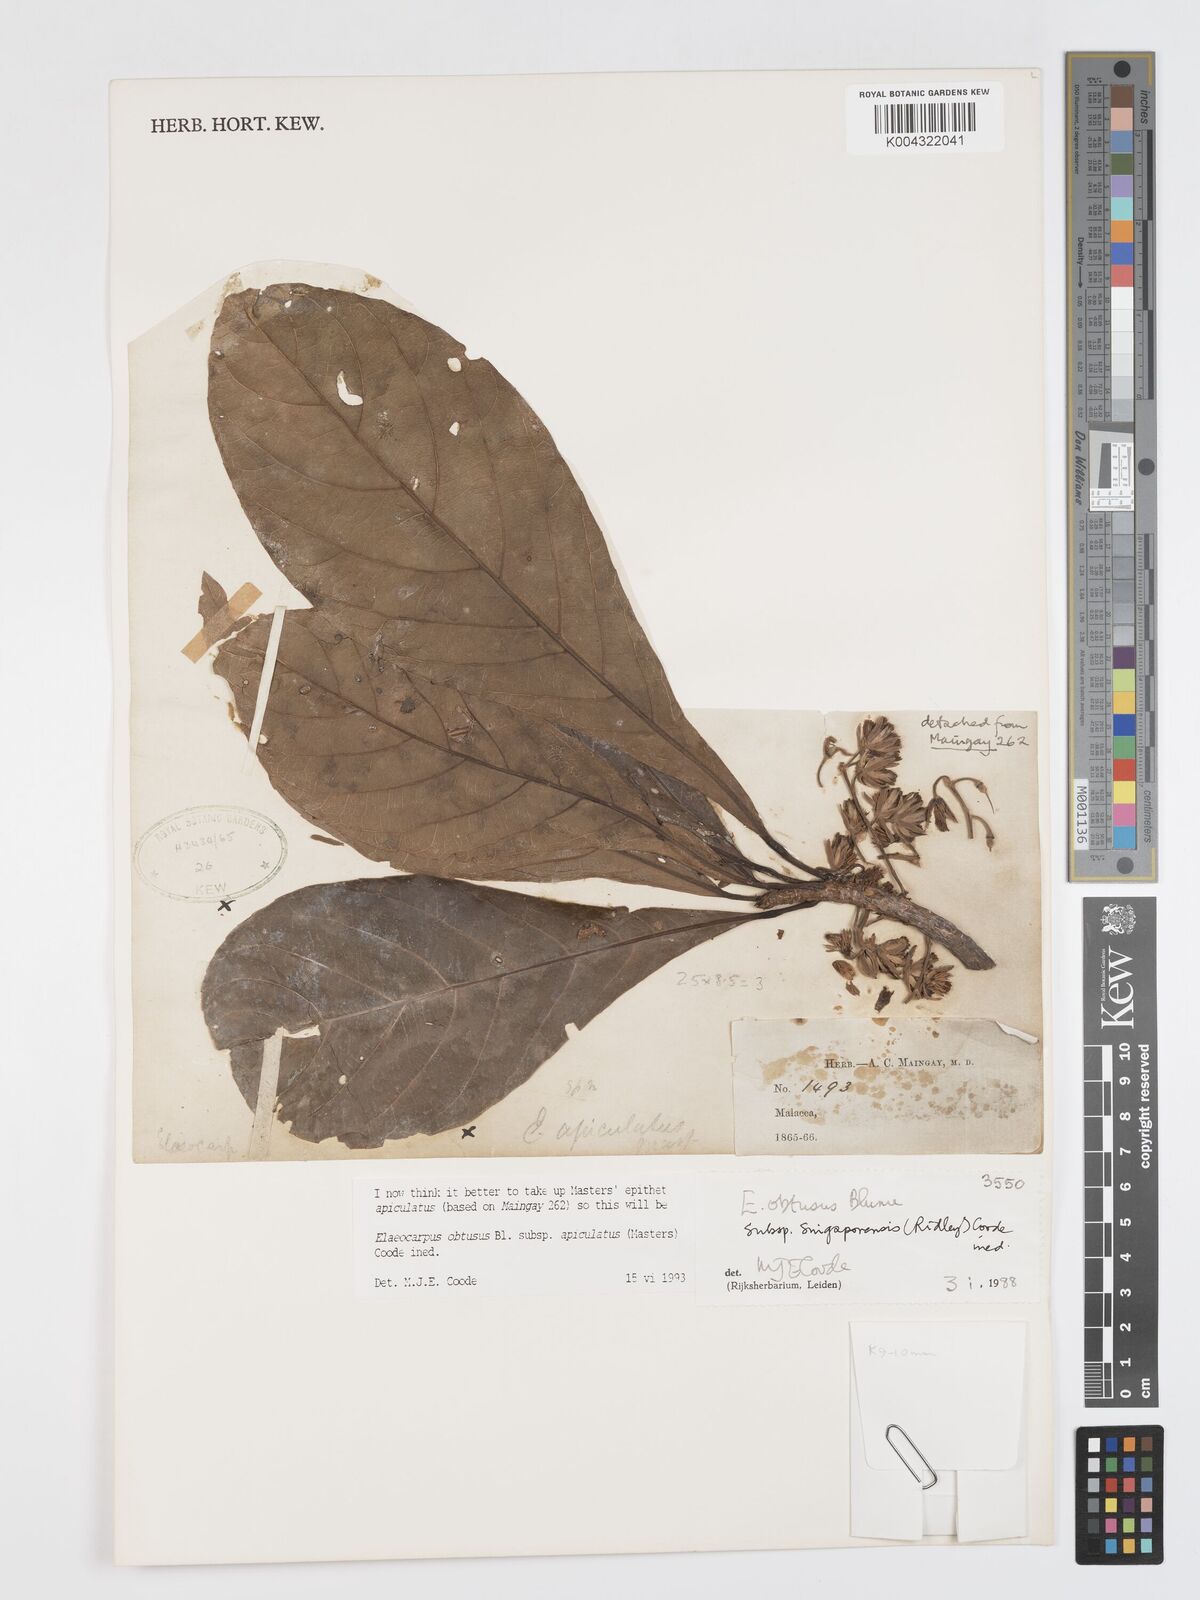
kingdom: Plantae
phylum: Tracheophyta
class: Magnoliopsida
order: Oxalidales
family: Elaeocarpaceae
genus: Elaeocarpus
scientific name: Elaeocarpus obtusus
